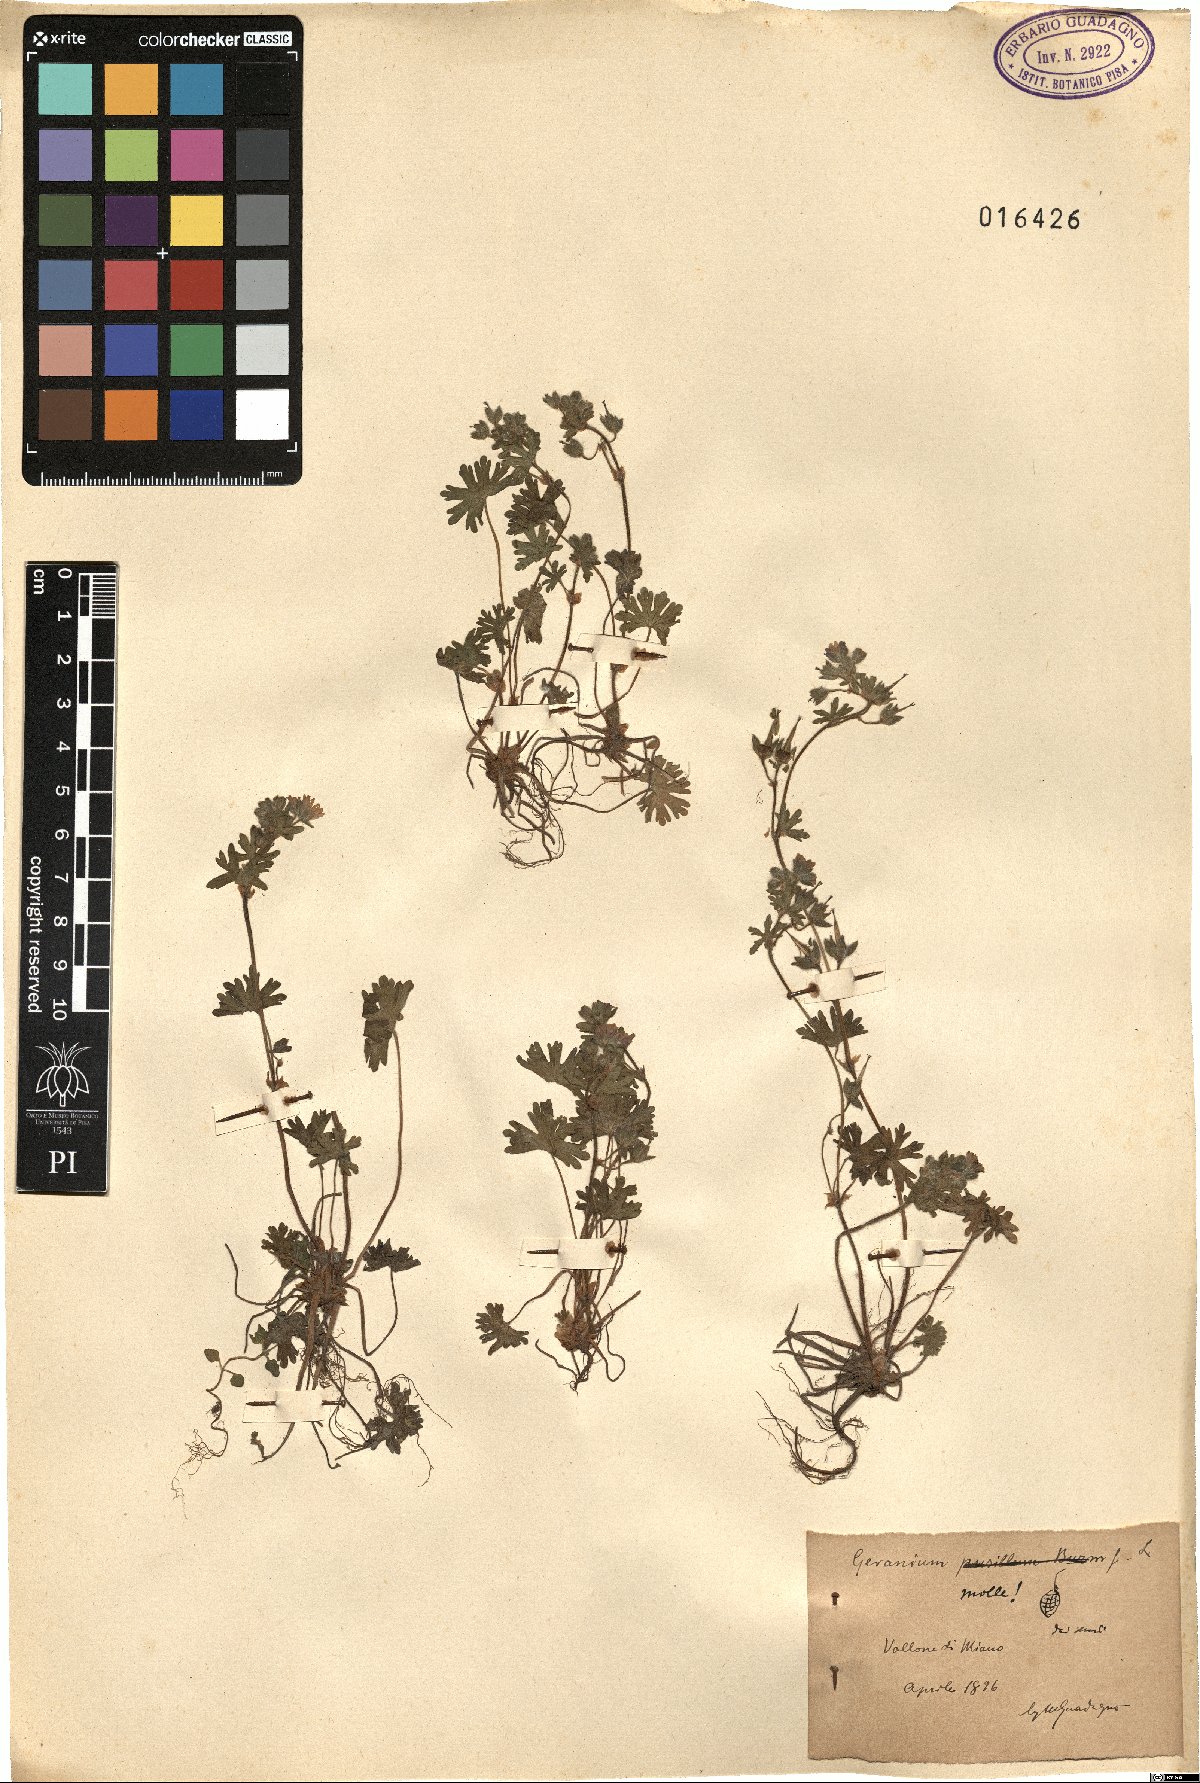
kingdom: Plantae
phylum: Tracheophyta
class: Magnoliopsida
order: Geraniales
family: Geraniaceae
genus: Geranium
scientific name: Geranium molle
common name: Dove's-foot crane's-bill
